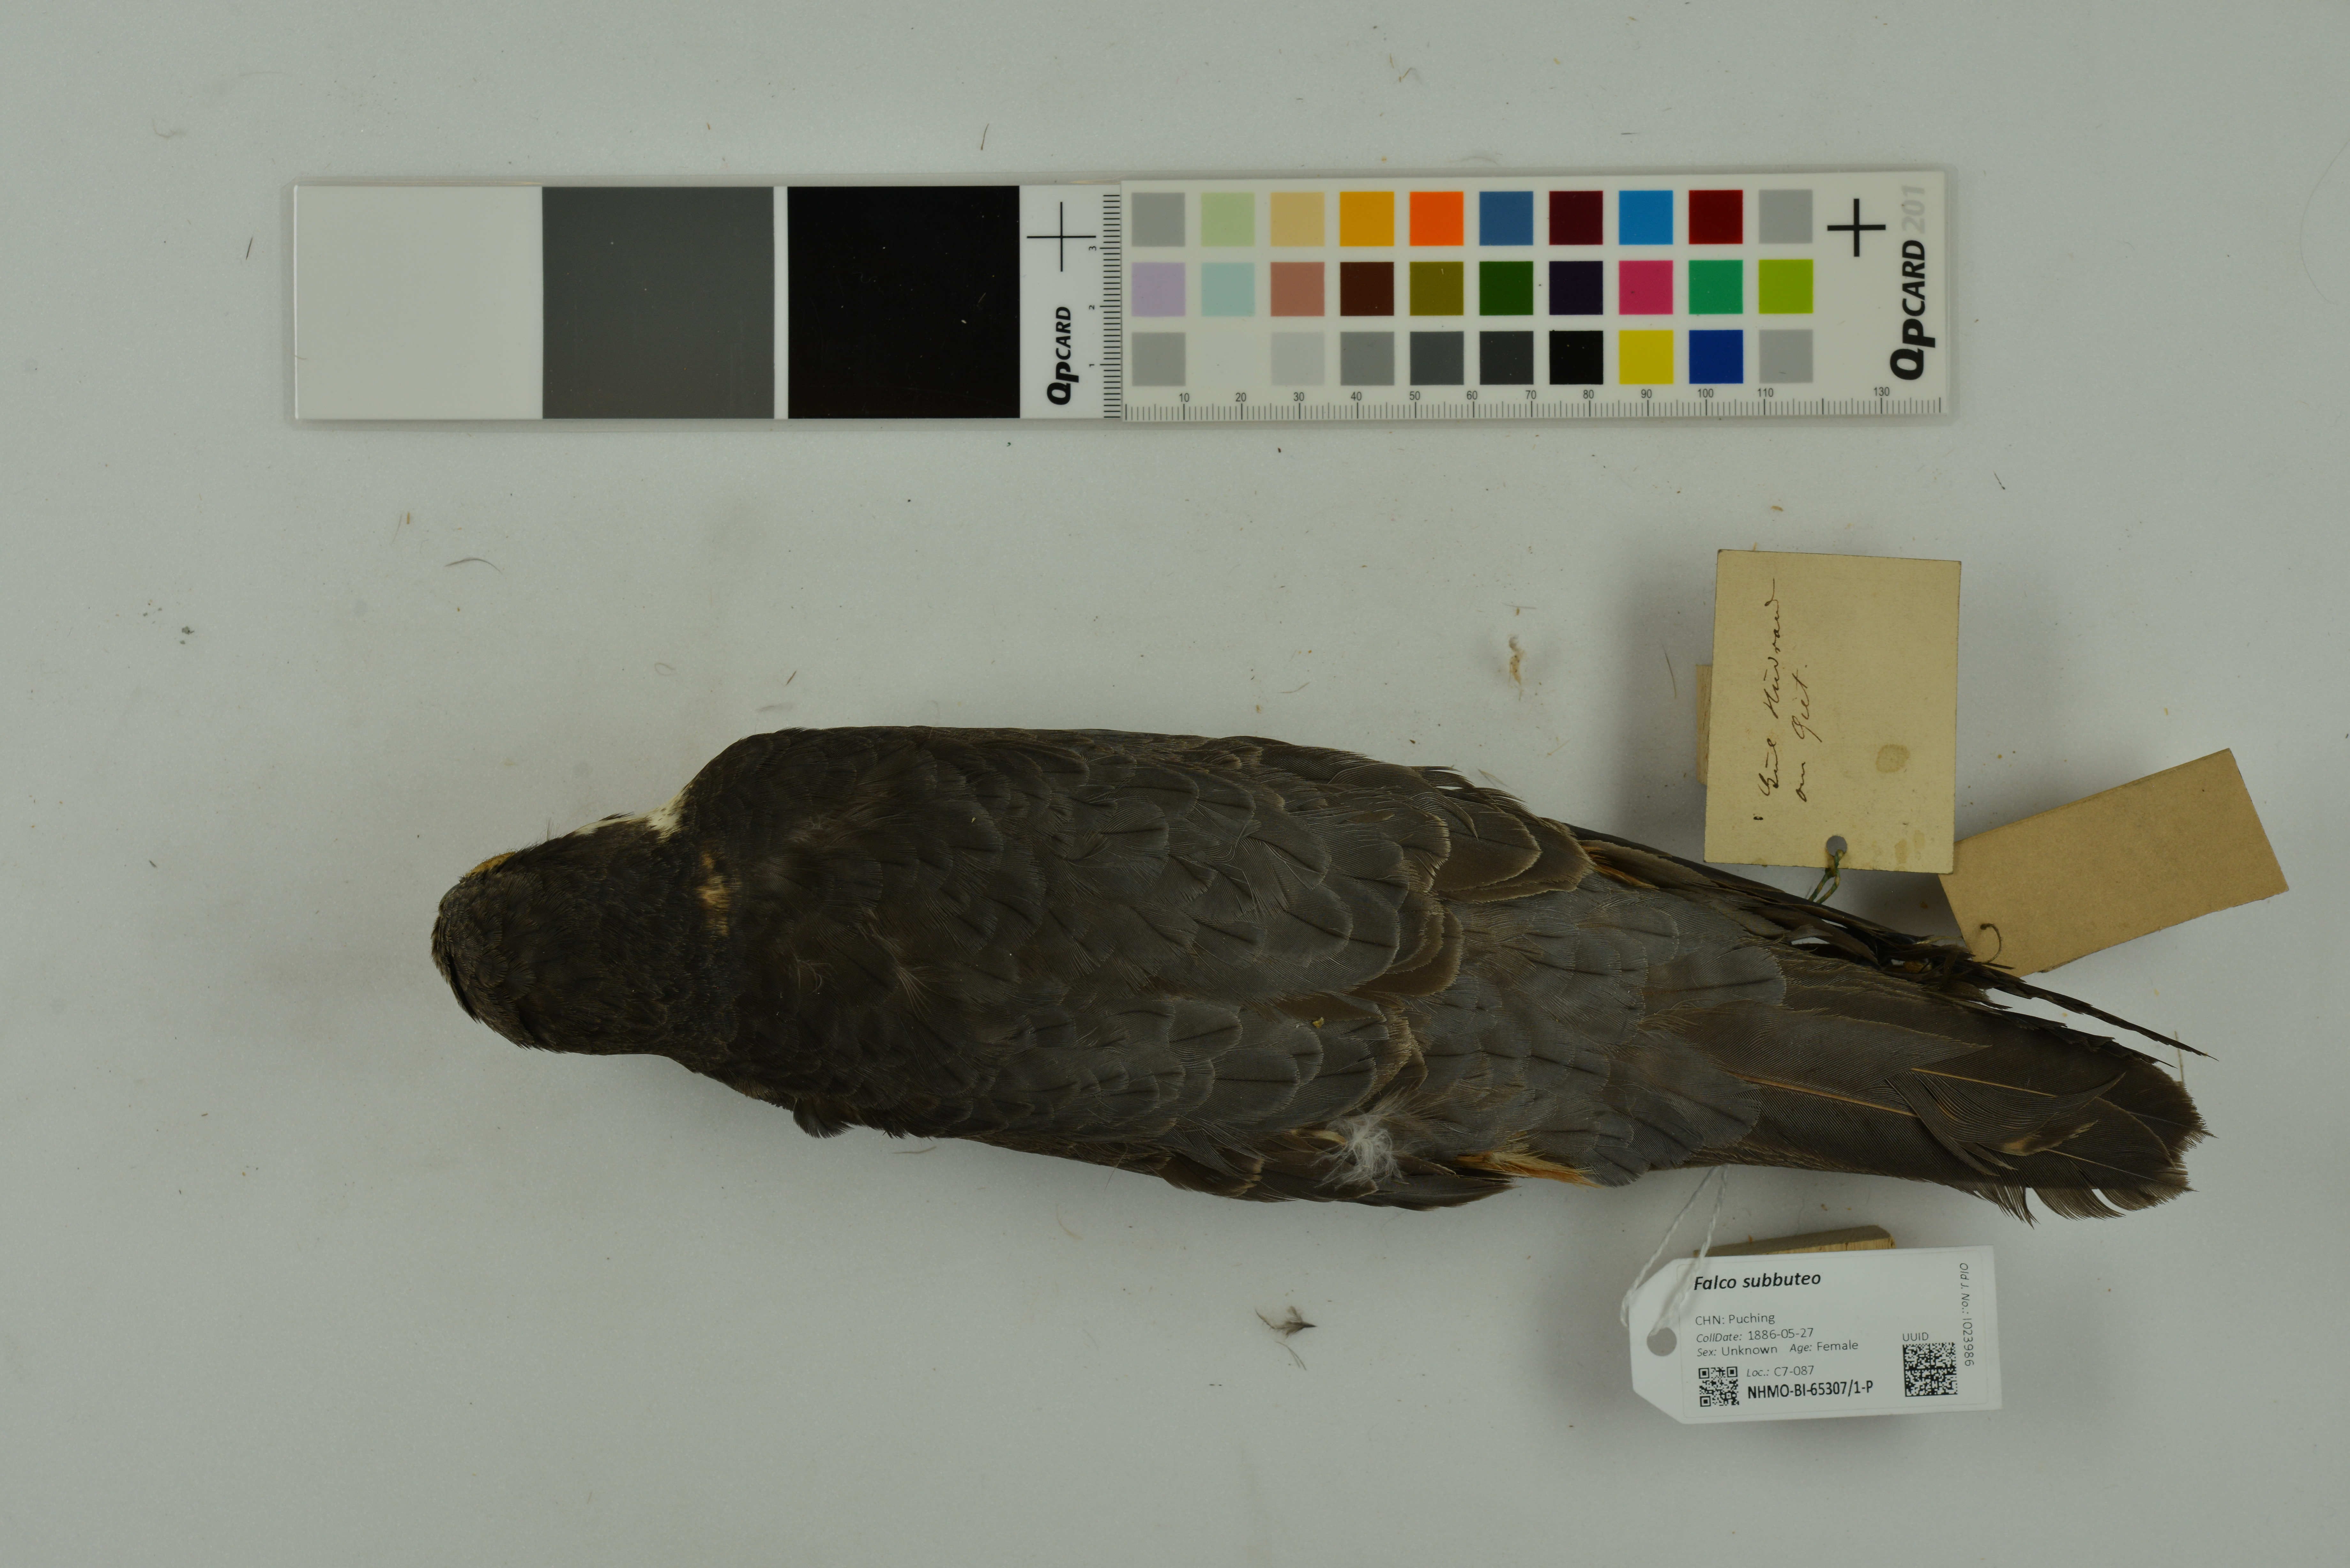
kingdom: Animalia
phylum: Chordata
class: Aves
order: Falconiformes
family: Falconidae
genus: Falco
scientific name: Falco subbuteo
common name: Eurasian hobby
